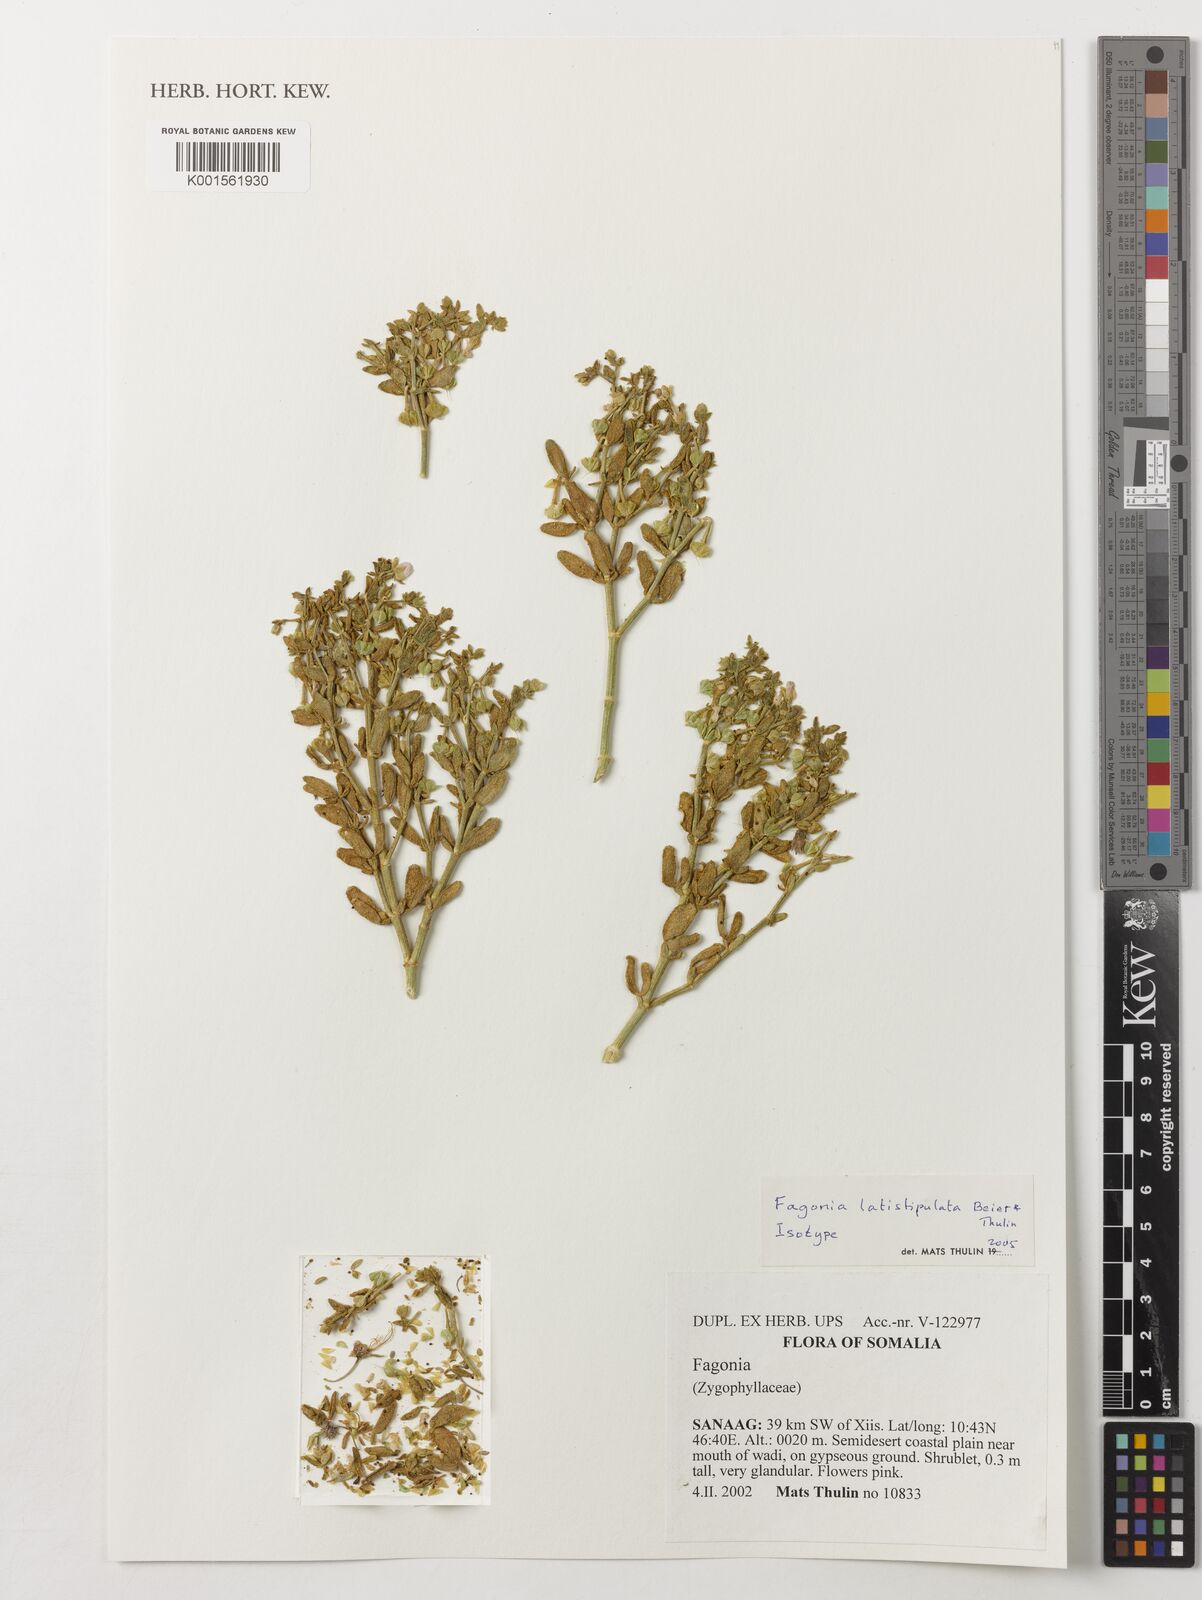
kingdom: Plantae
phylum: Tracheophyta
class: Magnoliopsida
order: Zygophyllales
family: Zygophyllaceae
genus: Fagonia
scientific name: Fagonia latistipulata
